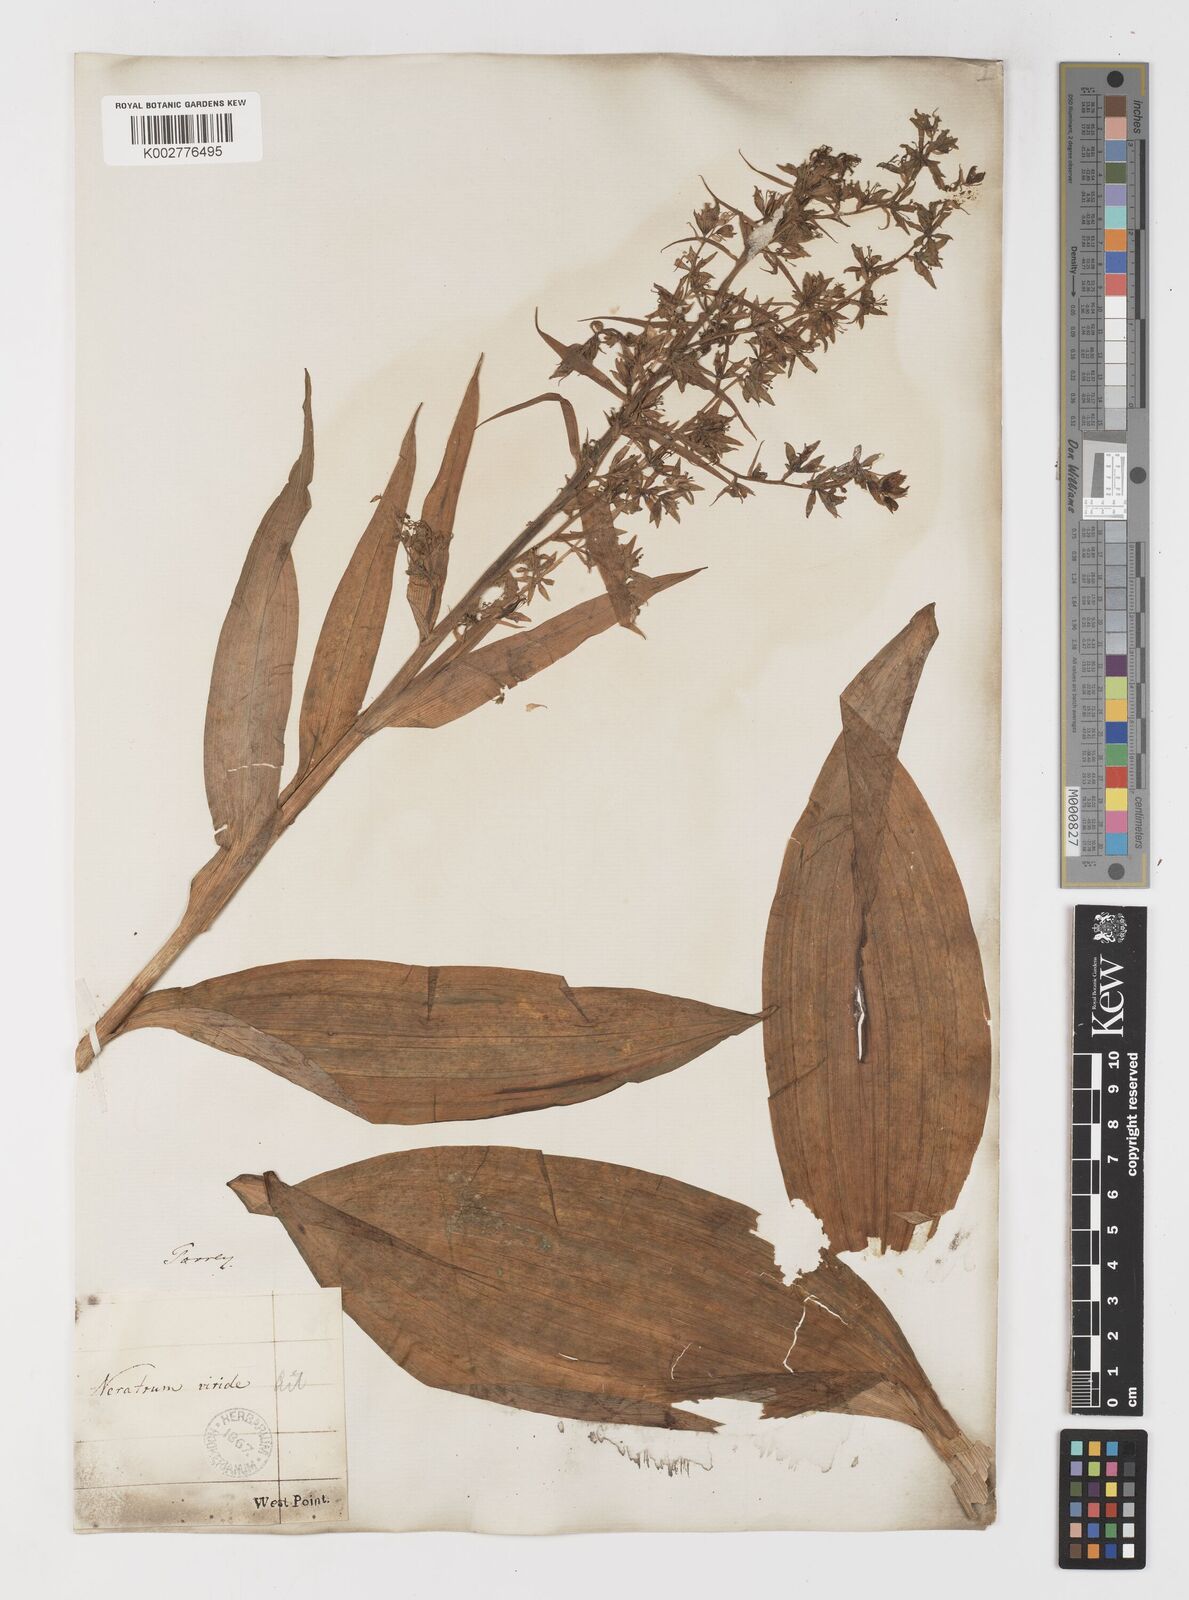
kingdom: Plantae
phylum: Tracheophyta
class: Liliopsida
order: Liliales
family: Melanthiaceae
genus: Veratrum
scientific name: Veratrum viride
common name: American false hellebore
